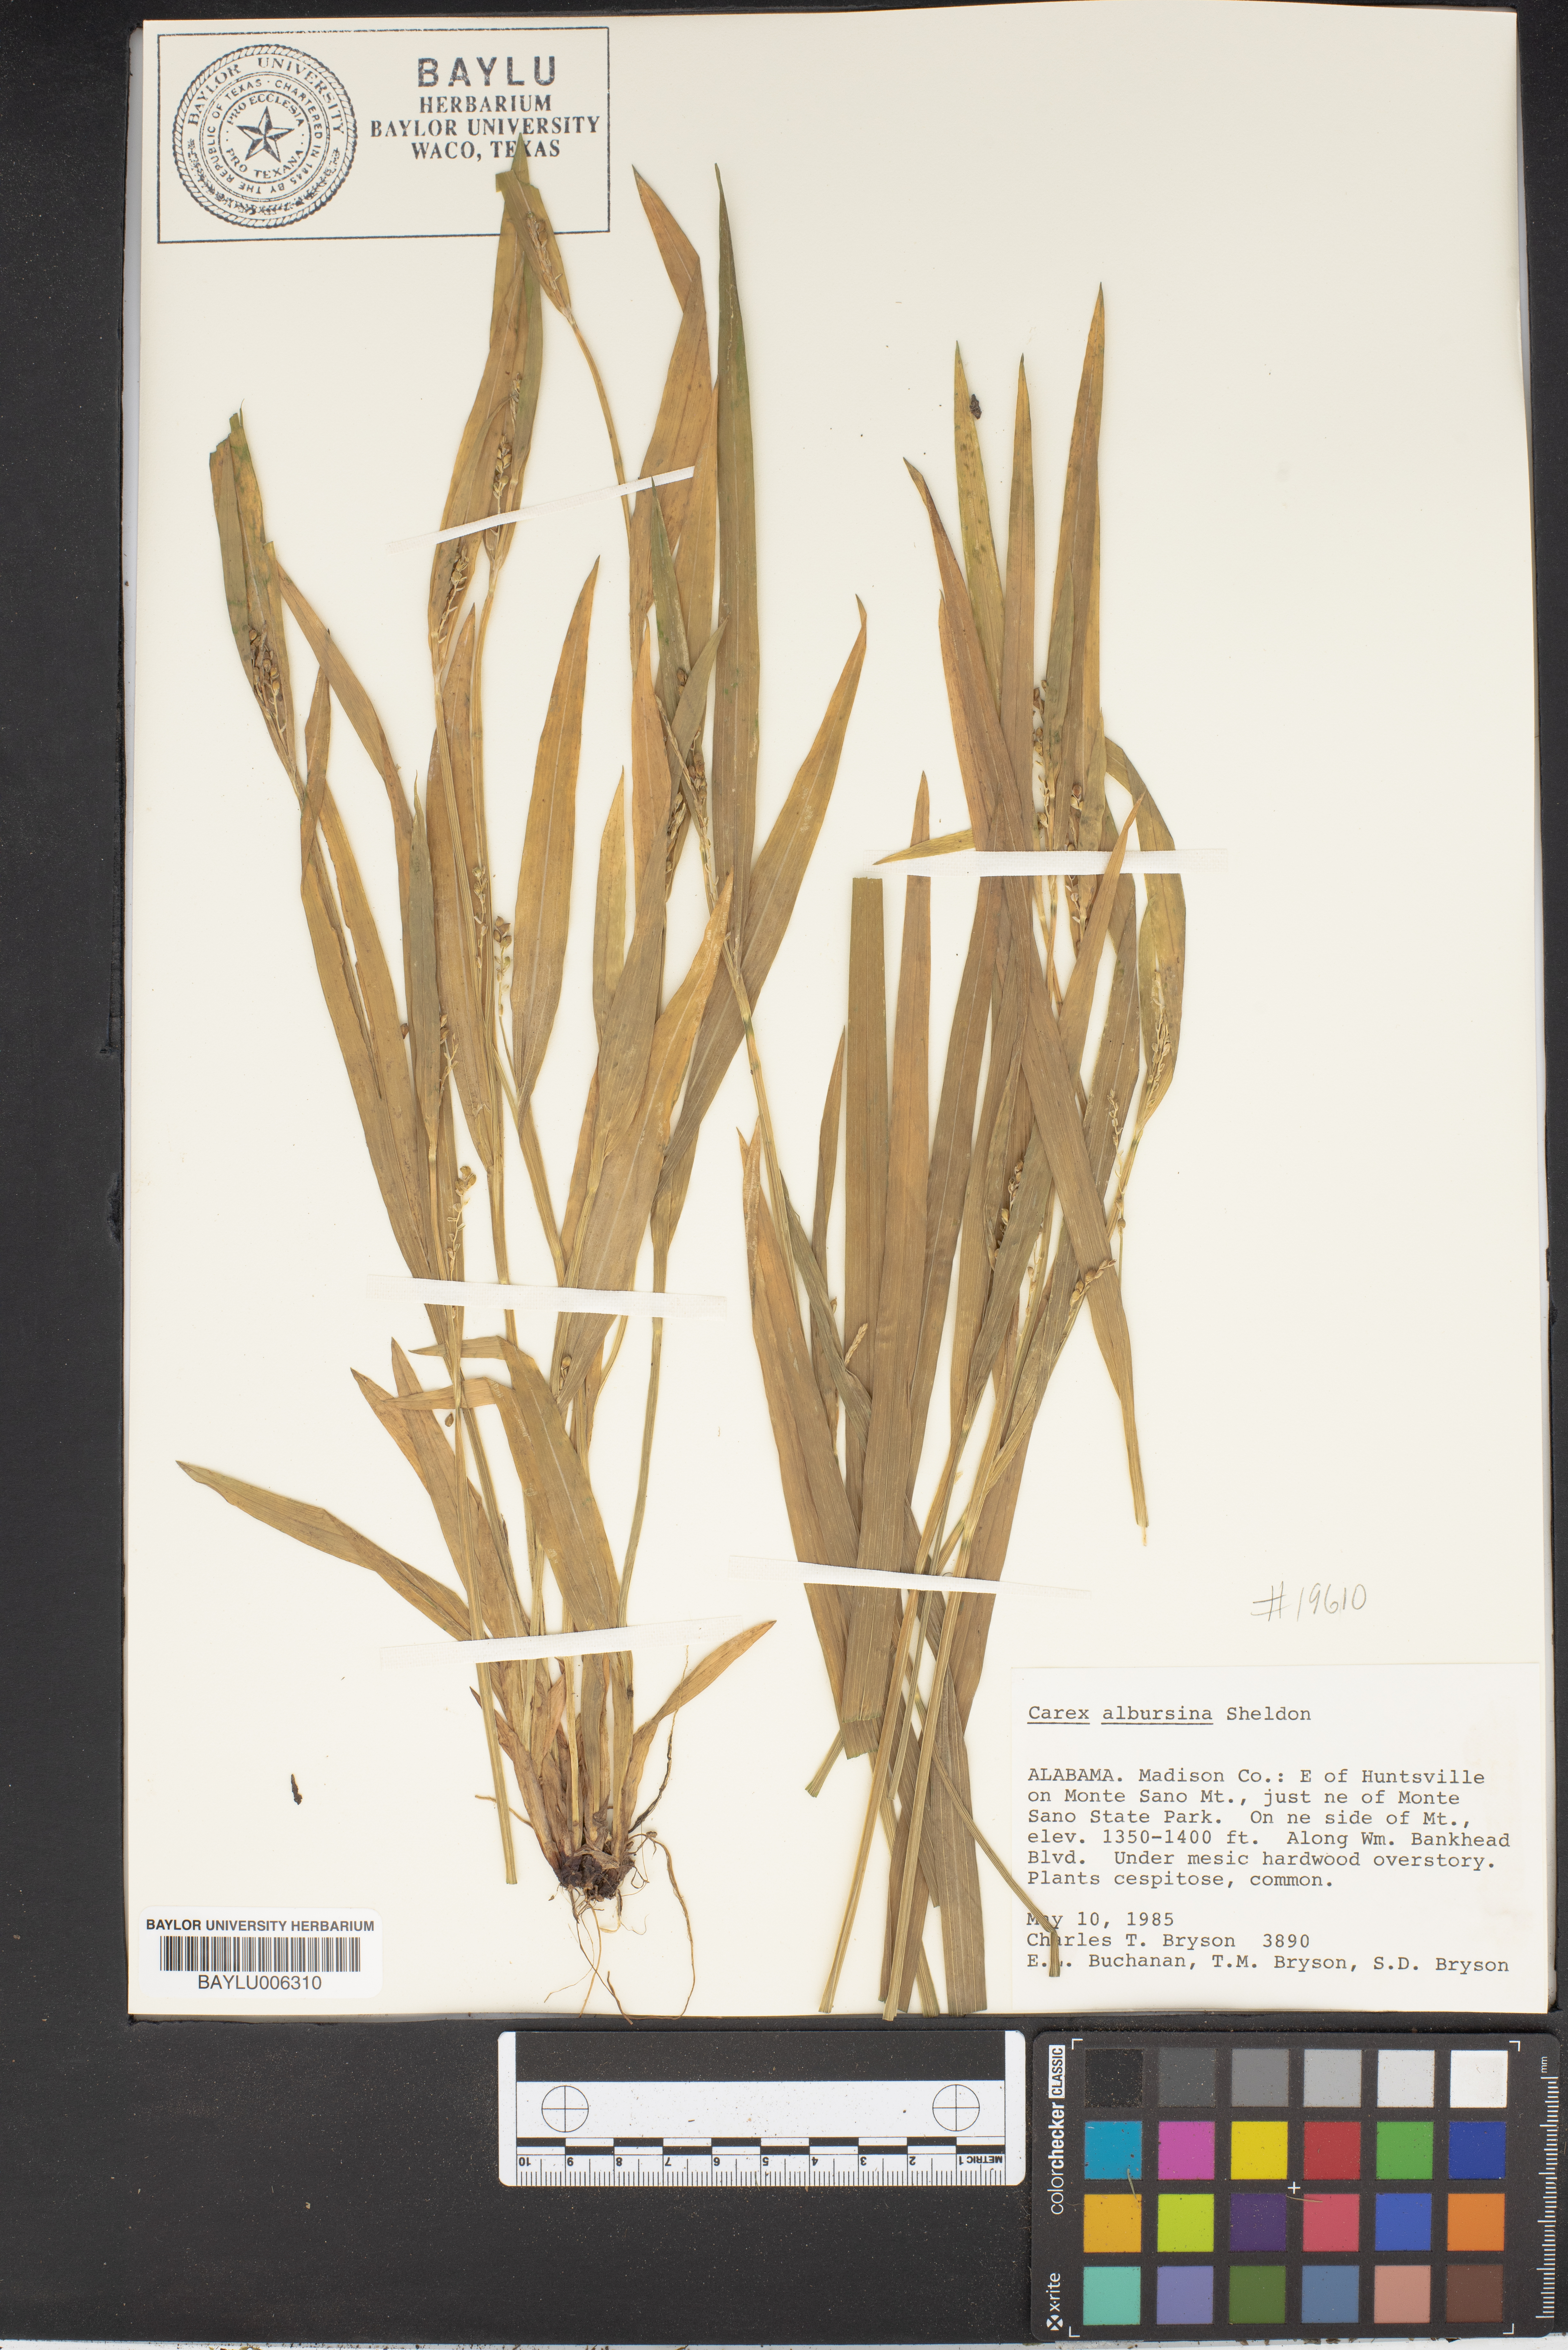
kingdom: Plantae
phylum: Tracheophyta
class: Liliopsida
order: Poales
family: Cyperaceae
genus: Carex
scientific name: Carex albursina
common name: Blunt-scale wood sedge
